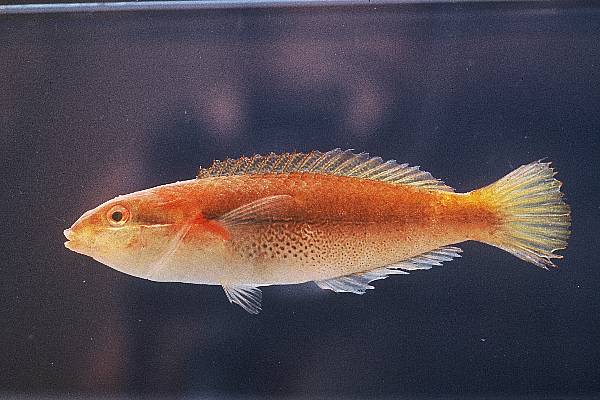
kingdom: Animalia
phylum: Chordata
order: Perciformes
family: Labridae
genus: Stethojulis
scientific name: Stethojulis interrupta
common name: Cutribbon wrasse
